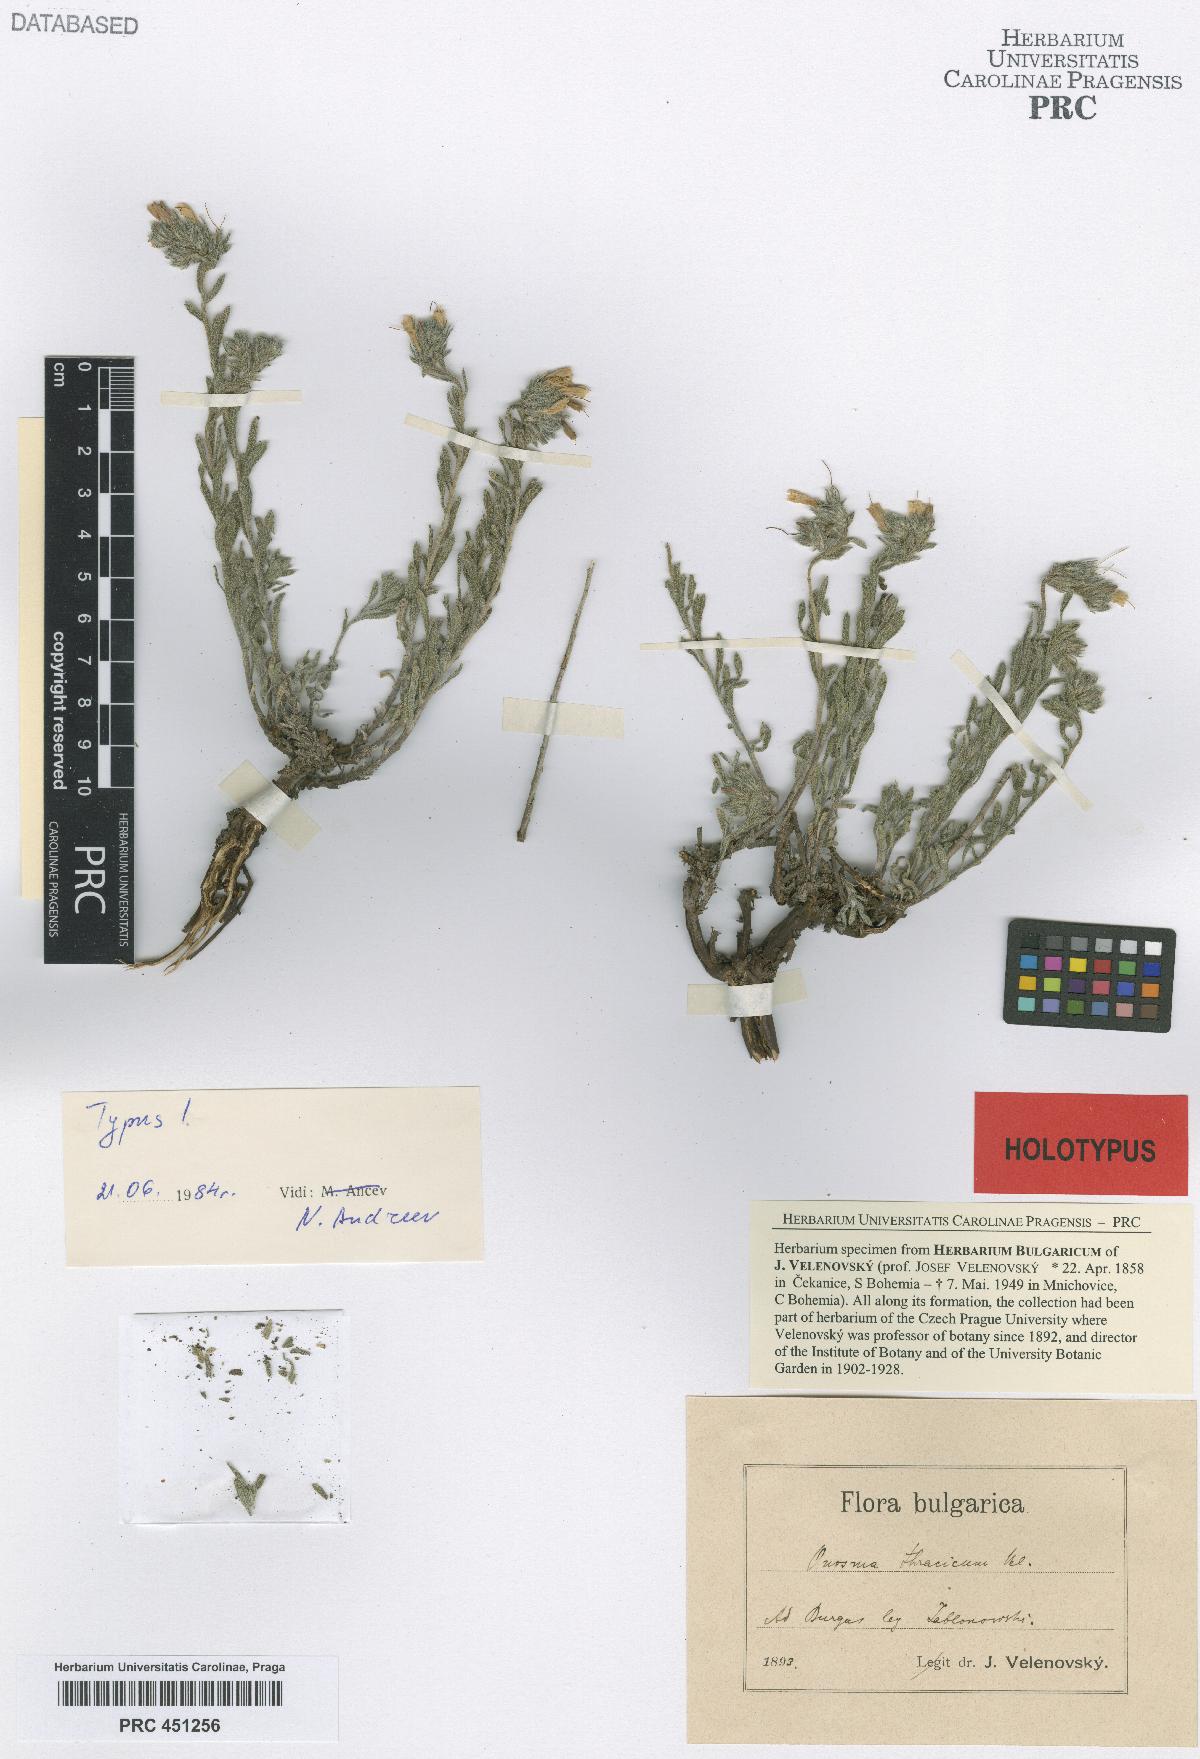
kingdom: Plantae
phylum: Tracheophyta
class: Magnoliopsida
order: Boraginales
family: Boraginaceae
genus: Onosma
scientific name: Onosma thracica
